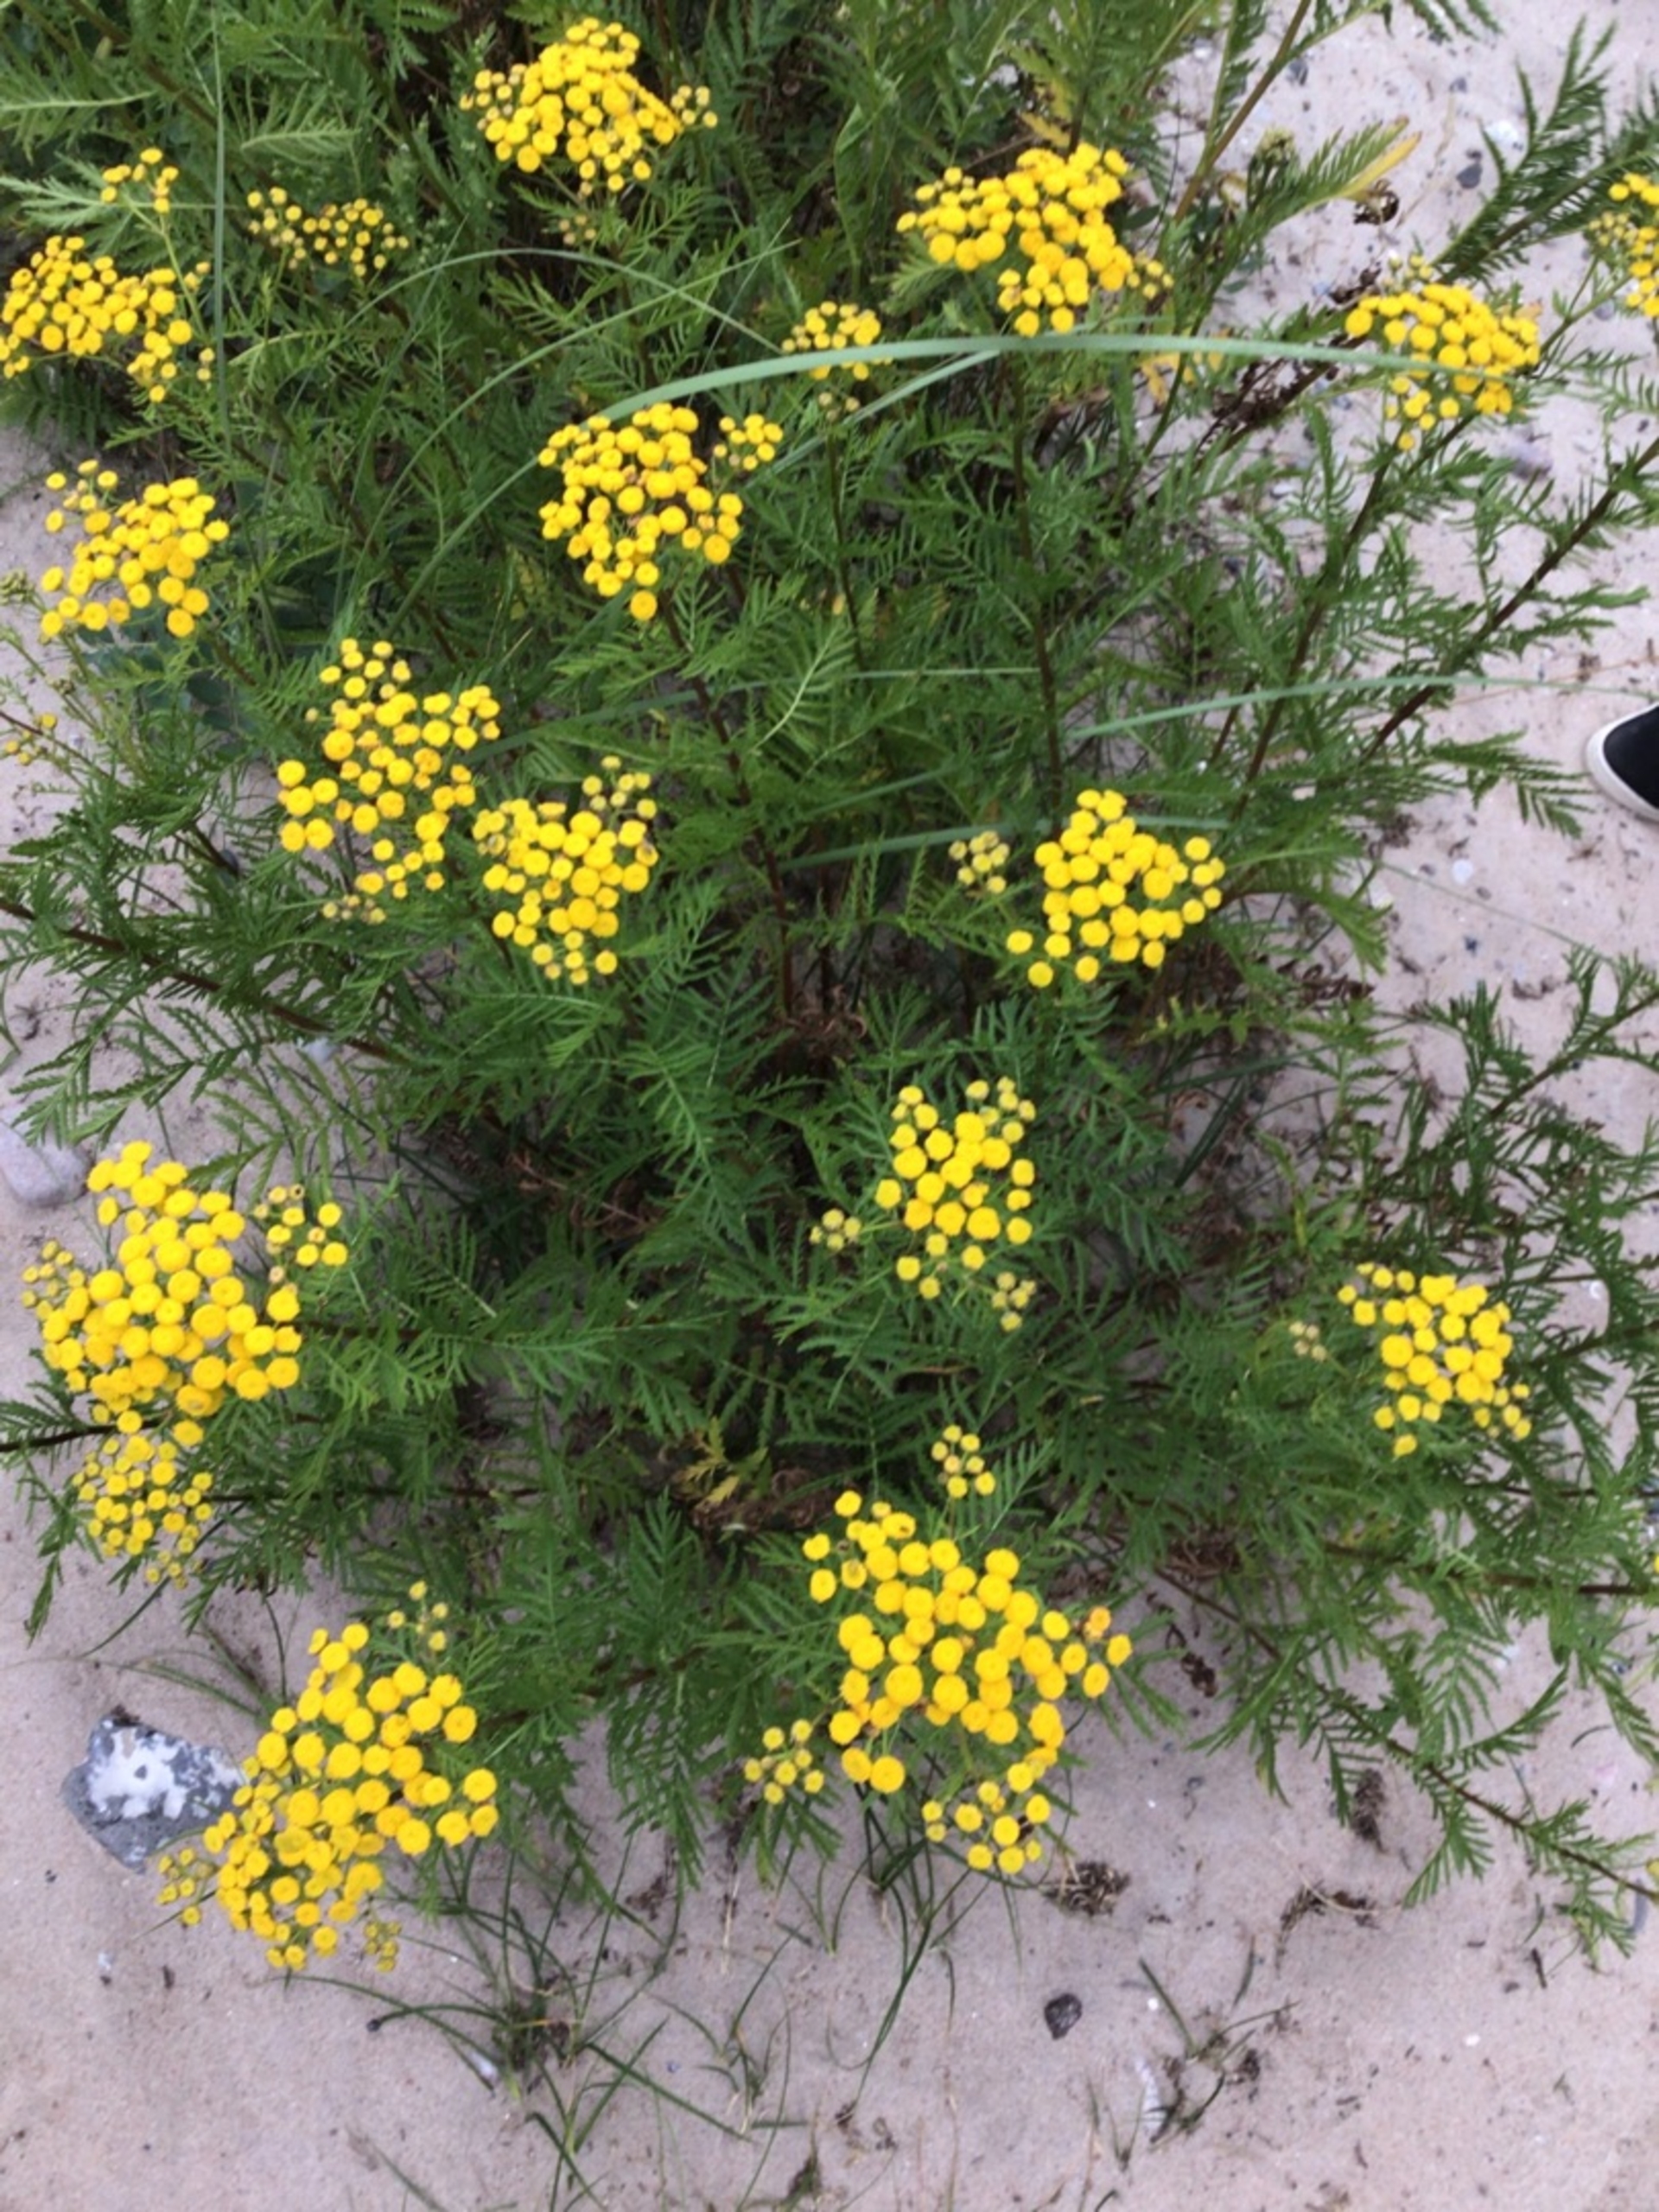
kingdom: Plantae
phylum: Tracheophyta
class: Magnoliopsida
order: Asterales
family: Asteraceae
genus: Tanacetum
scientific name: Tanacetum vulgare
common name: Rejnfan
